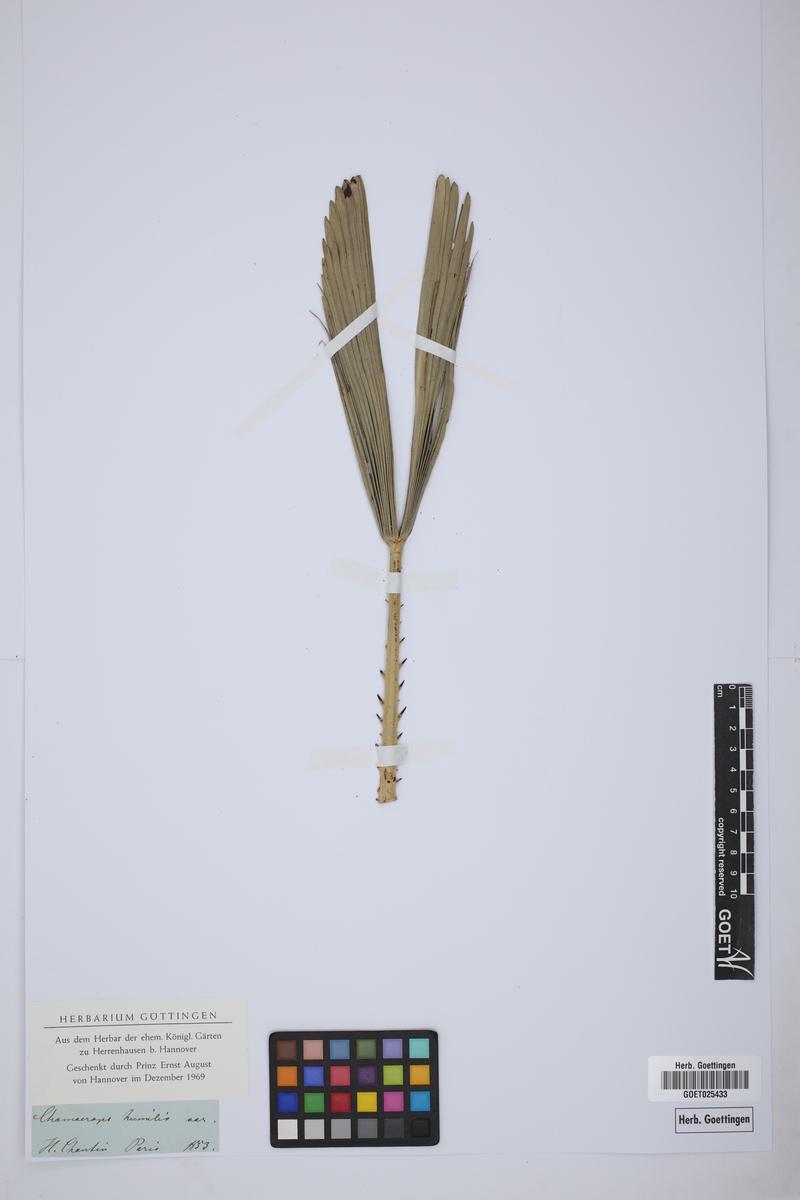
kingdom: Plantae
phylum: Tracheophyta
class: Liliopsida
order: Arecales
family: Arecaceae
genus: Chamaerops
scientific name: Chamaerops humilis
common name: Dwarf fan palm
